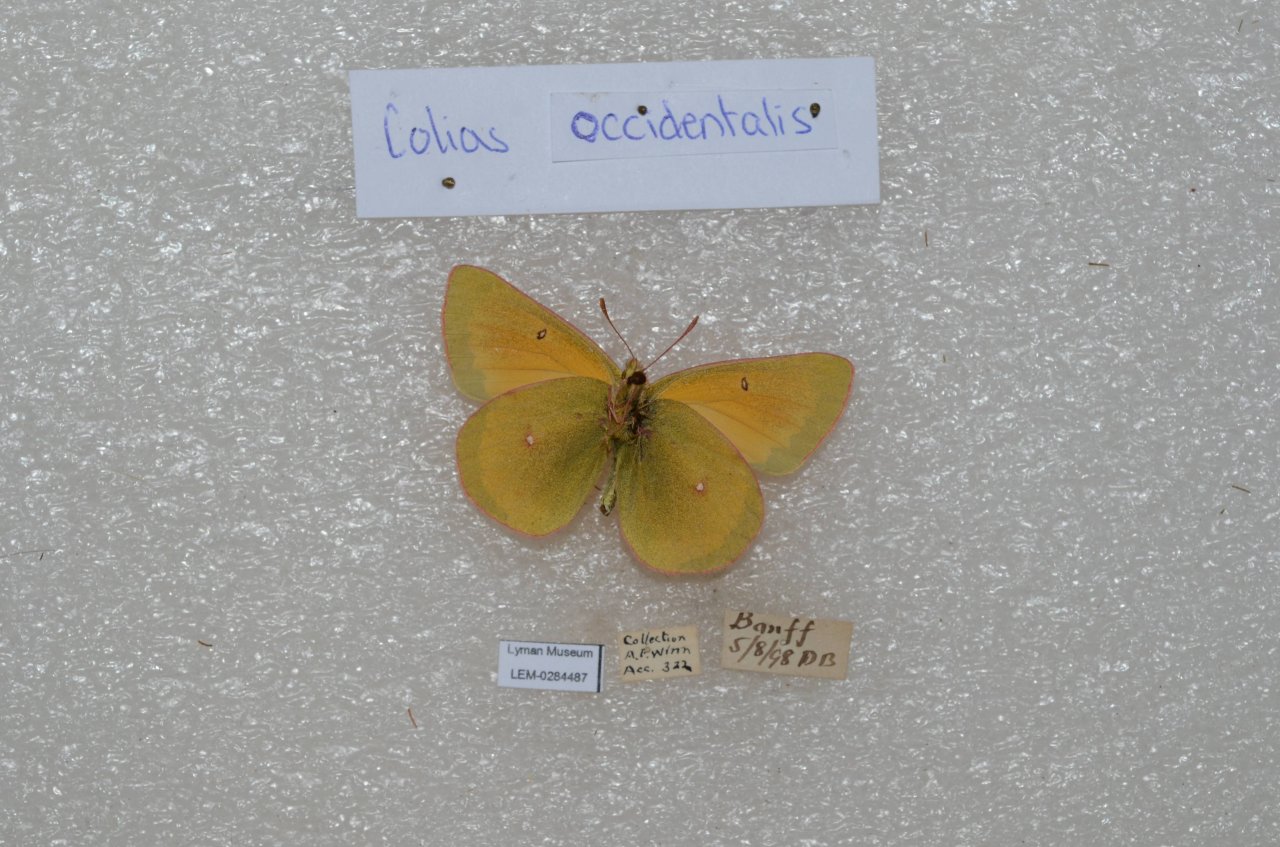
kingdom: Animalia
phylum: Arthropoda
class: Insecta
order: Lepidoptera
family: Pieridae
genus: Colias
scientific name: Colias
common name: Clouded Yellows
